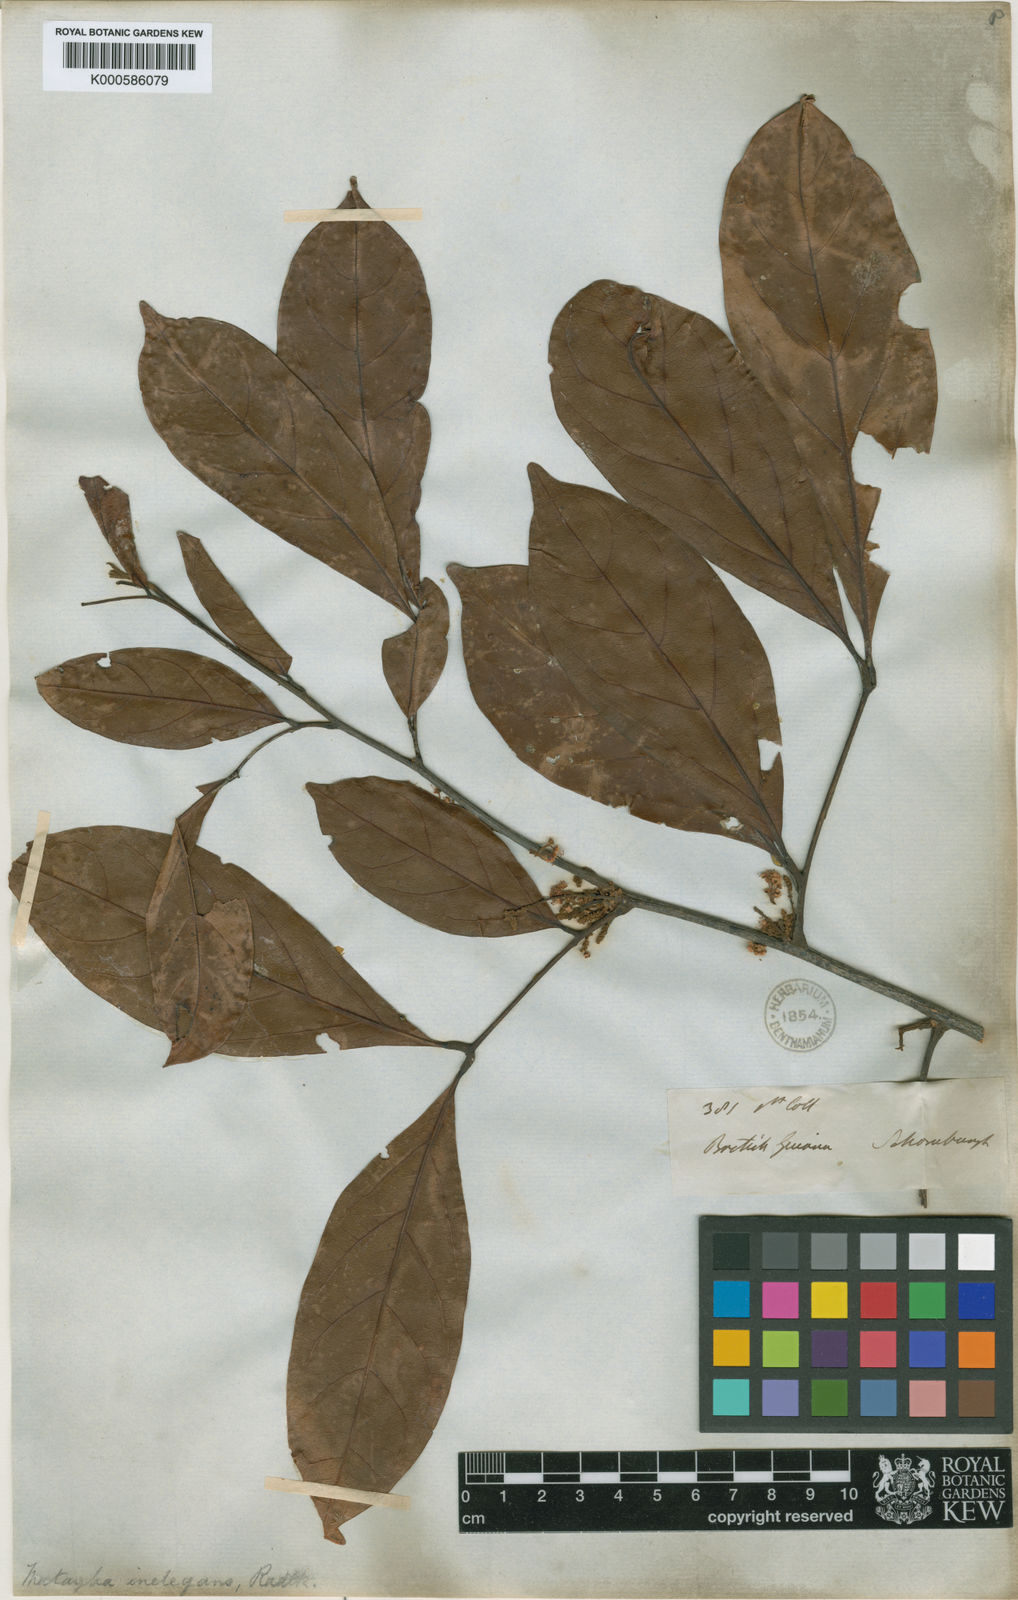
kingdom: Plantae
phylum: Tracheophyta
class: Magnoliopsida
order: Sapindales
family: Sapindaceae
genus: Matayba
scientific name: Matayba inelegans
